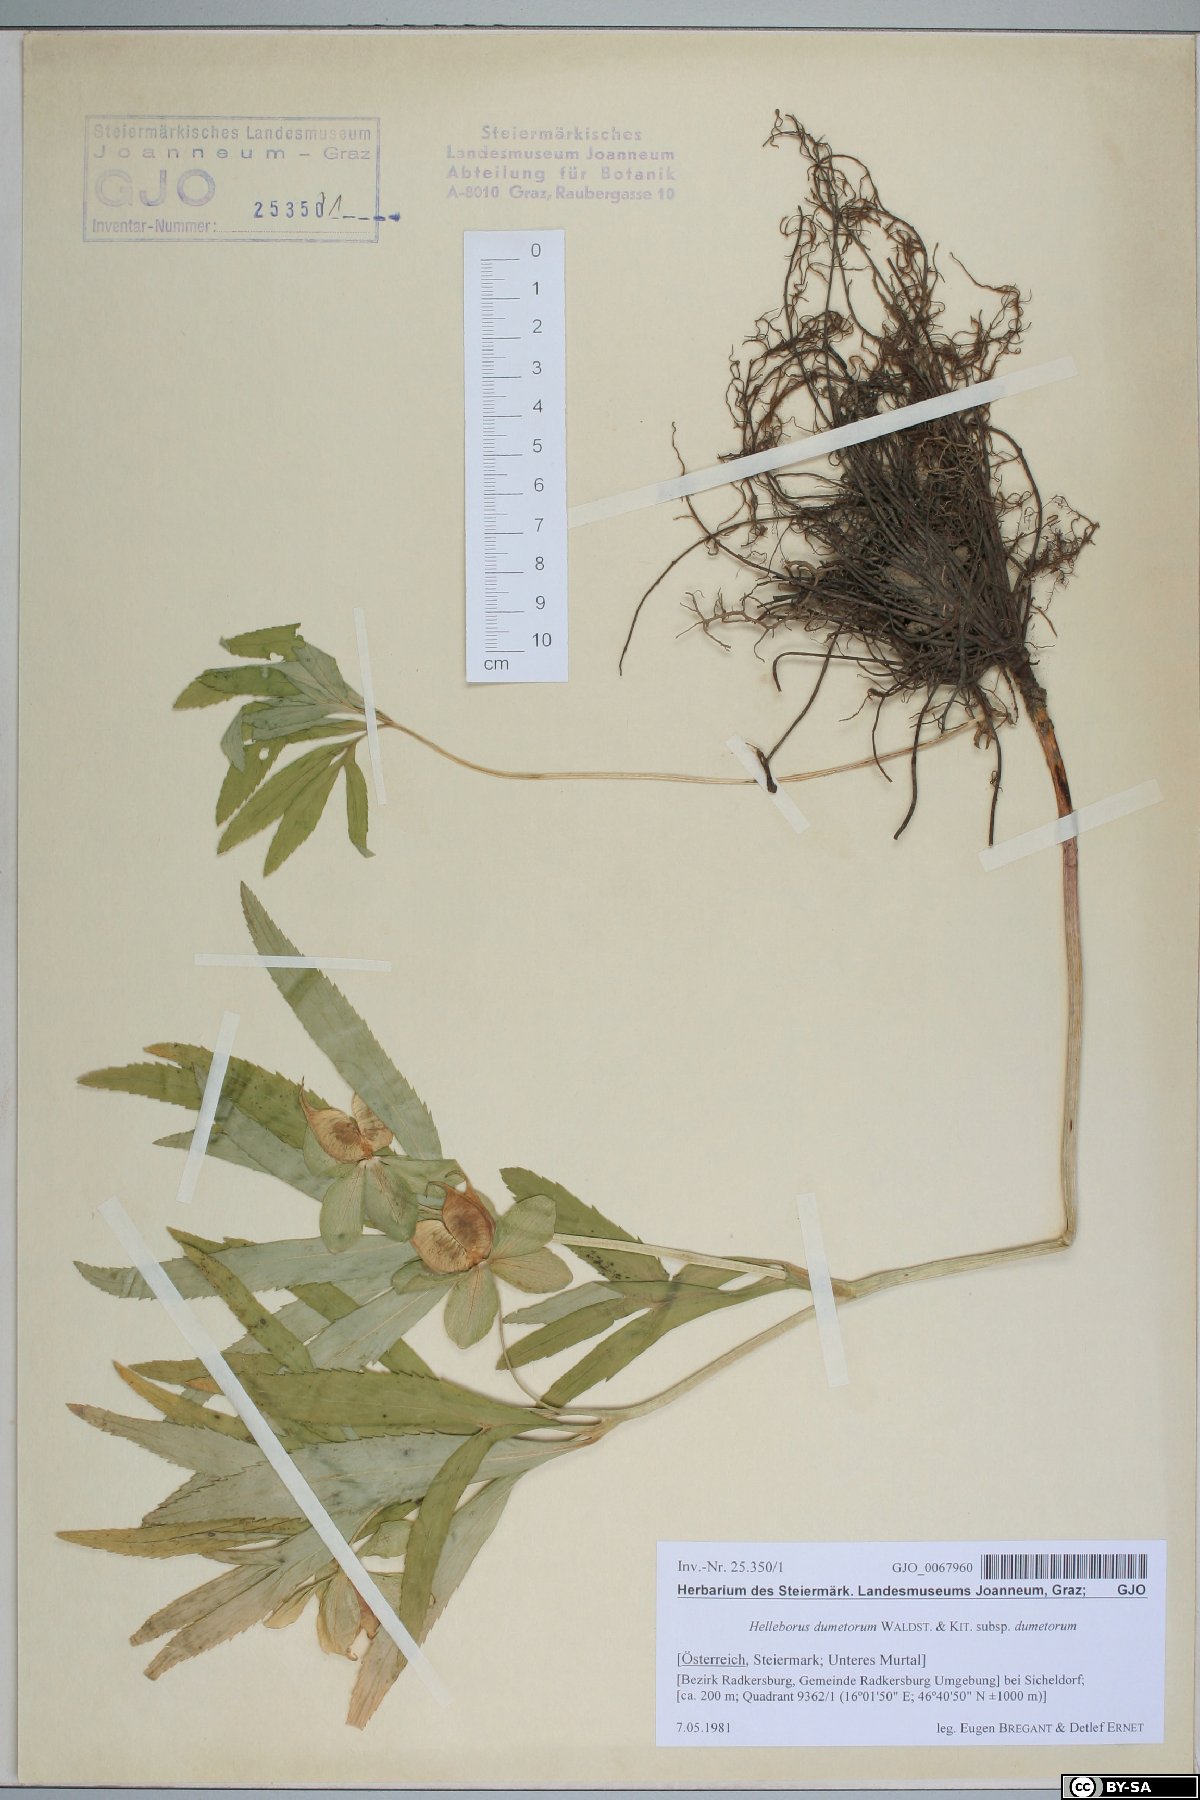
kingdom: Plantae
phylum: Tracheophyta
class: Magnoliopsida
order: Ranunculales
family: Ranunculaceae
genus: Helleborus
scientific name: Helleborus dumetorum
